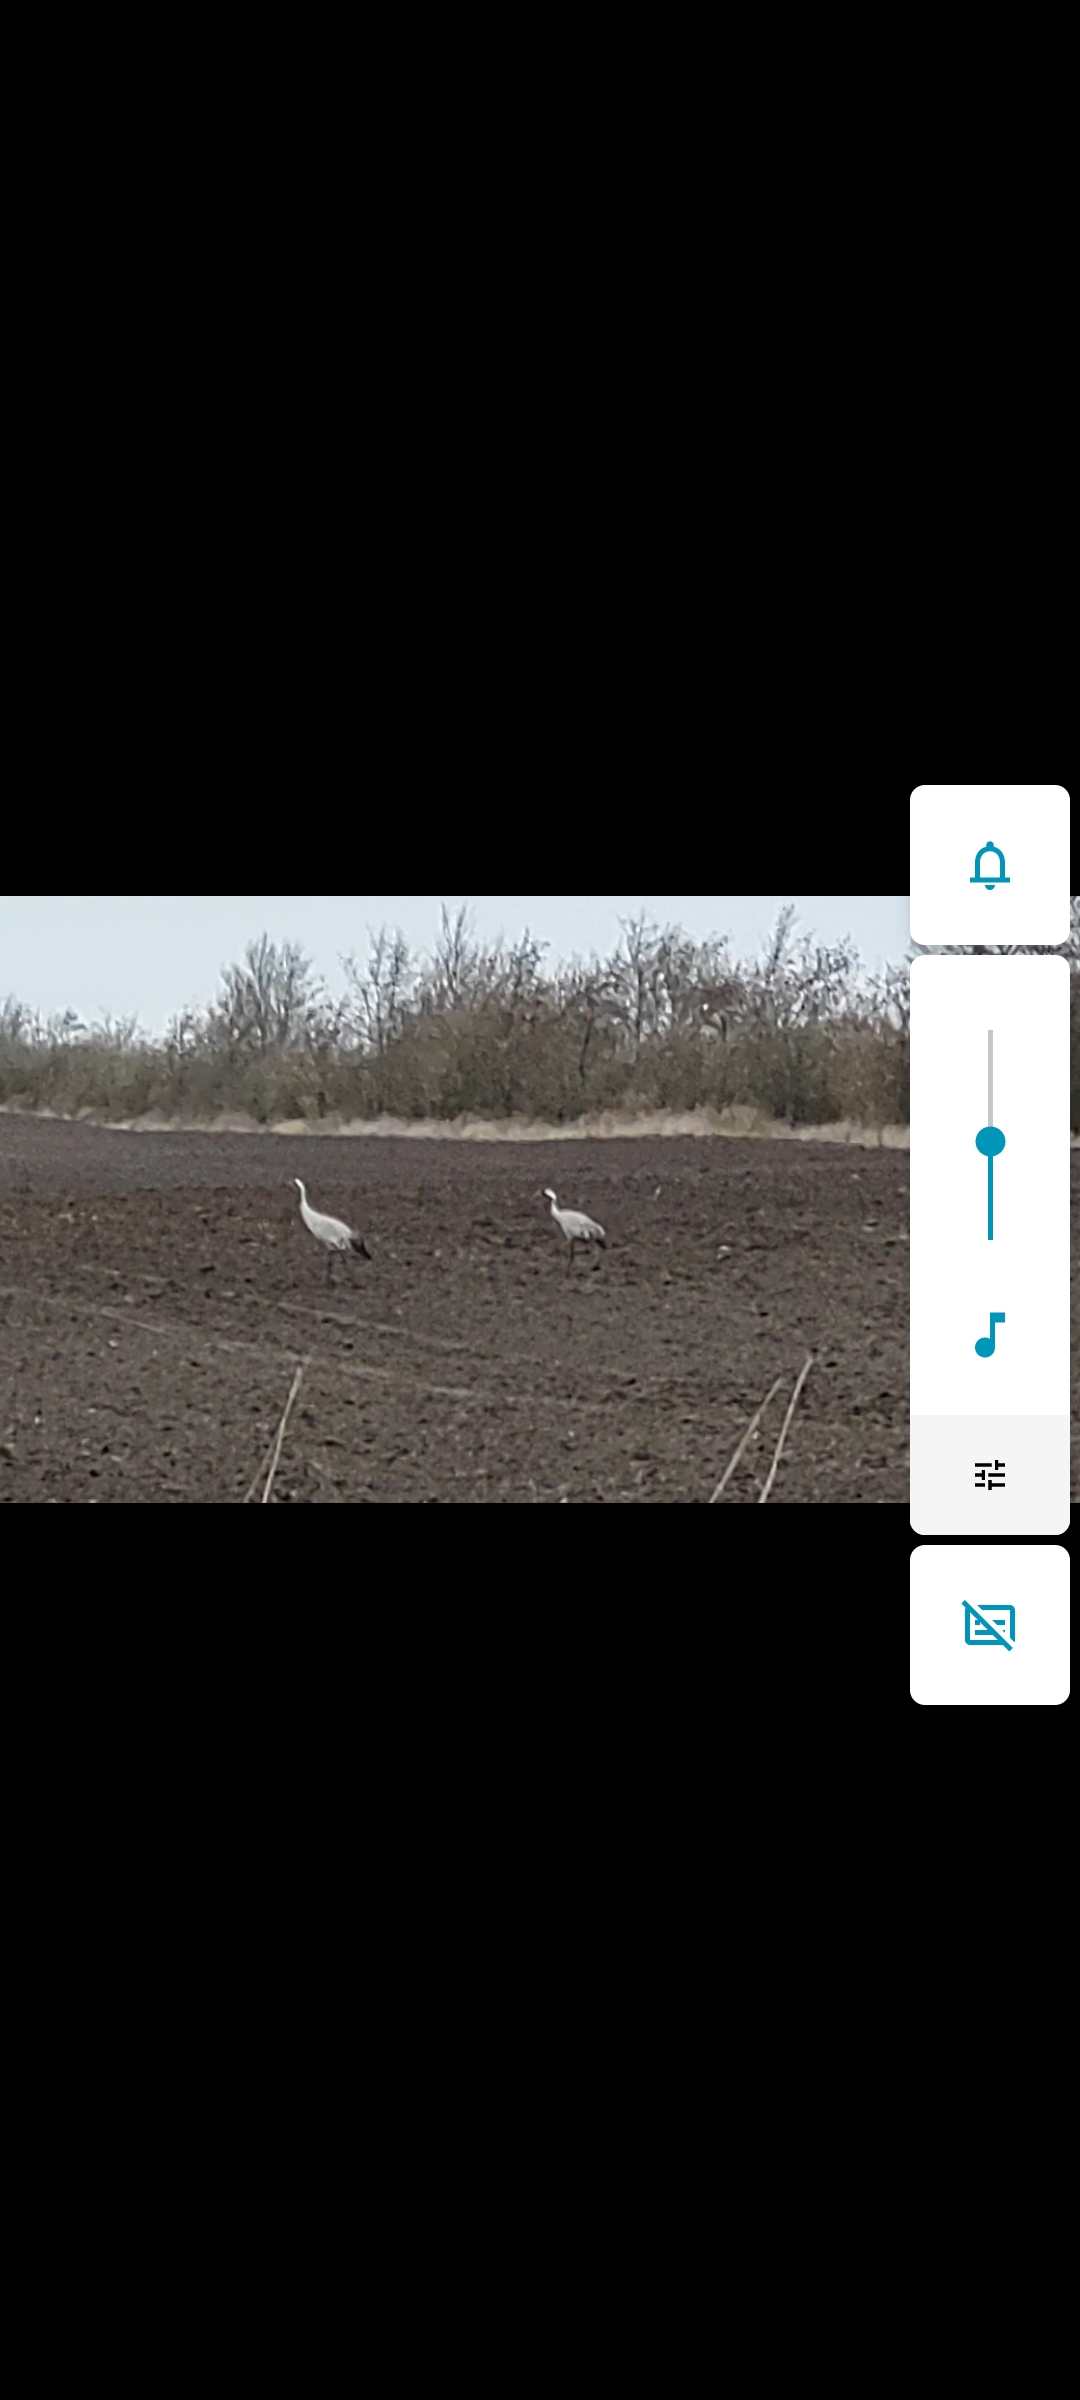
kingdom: Animalia
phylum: Chordata
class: Aves
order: Gruiformes
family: Gruidae
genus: Grus
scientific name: Grus grus
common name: Trane
